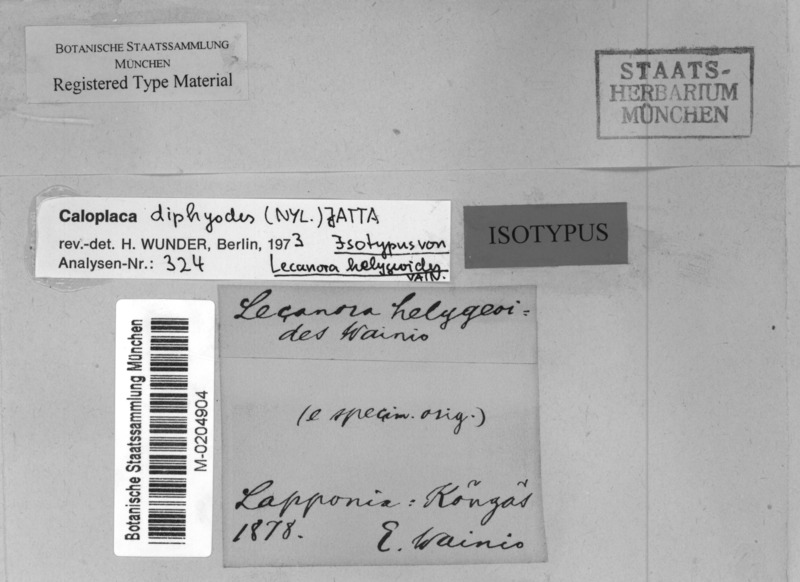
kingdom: Fungi
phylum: Ascomycota
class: Lecanoromycetes
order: Teloschistales
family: Teloschistaceae
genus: Kuettlingeria
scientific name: Kuettlingeria diphyodes
